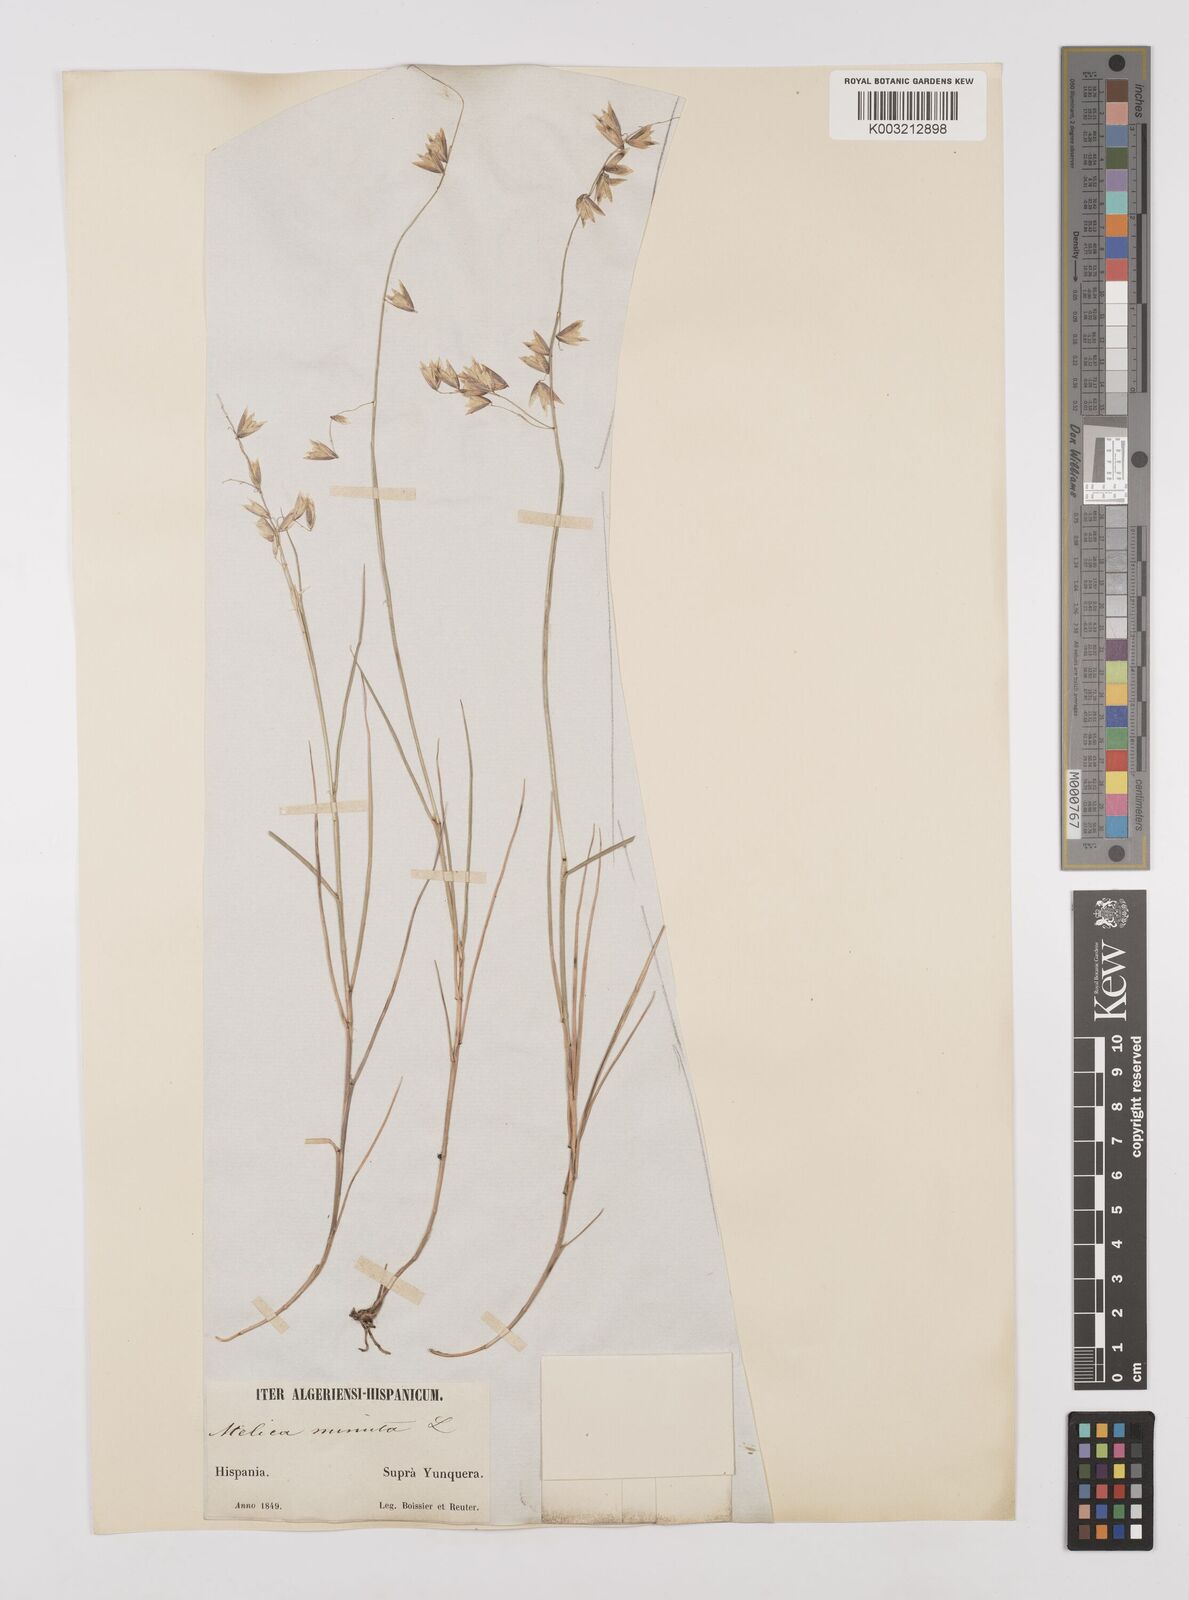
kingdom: Plantae
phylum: Tracheophyta
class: Liliopsida
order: Poales
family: Poaceae
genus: Melica
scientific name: Melica minuta
